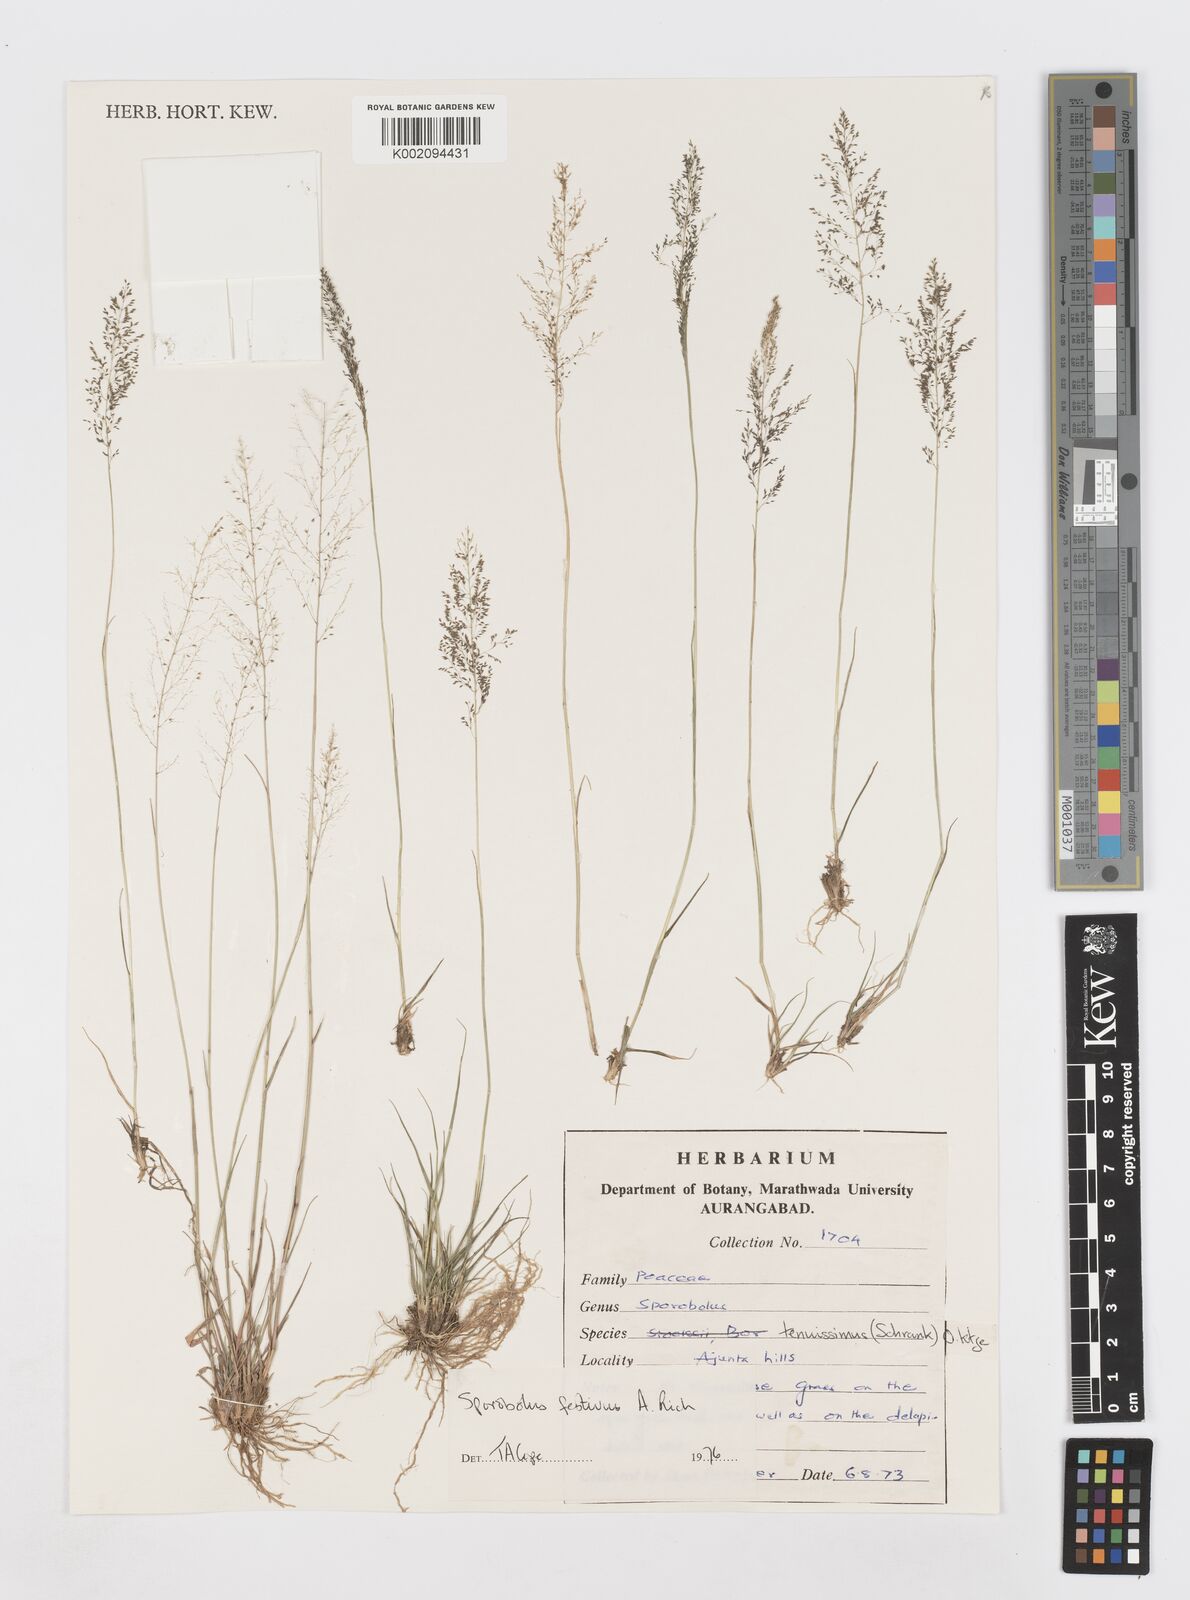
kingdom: Plantae
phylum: Tracheophyta
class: Liliopsida
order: Poales
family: Poaceae
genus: Sporobolus
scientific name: Sporobolus festivus
